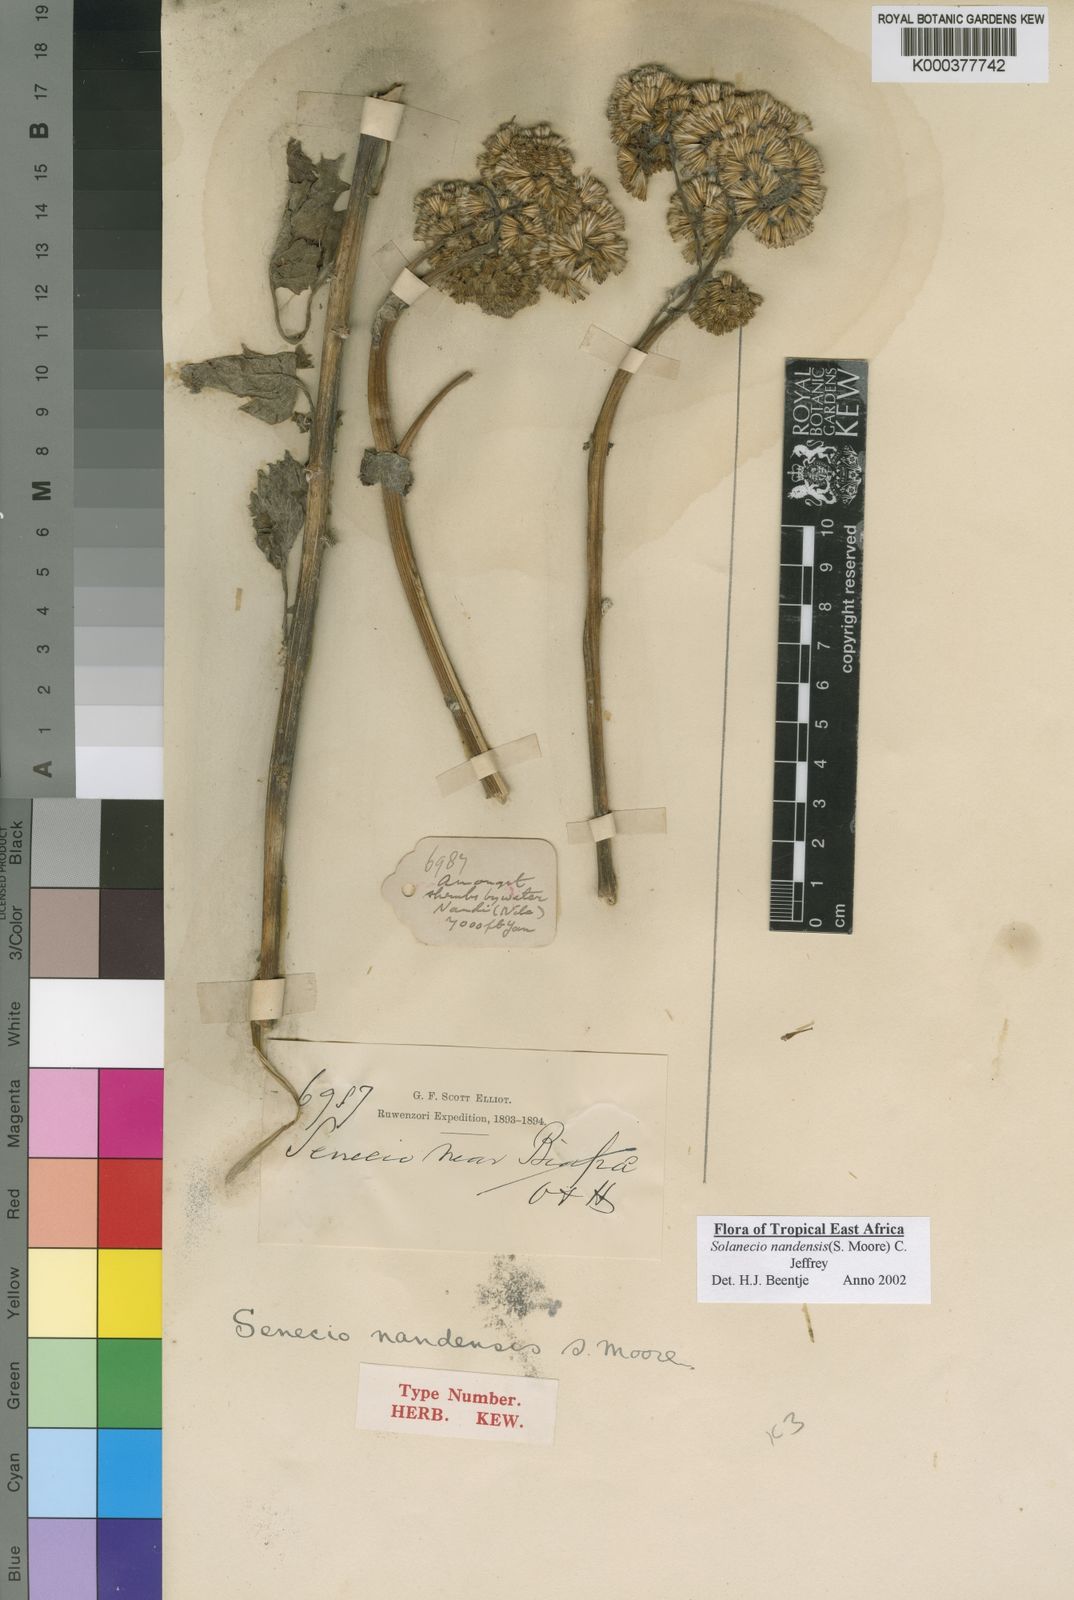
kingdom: Plantae
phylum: Tracheophyta
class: Magnoliopsida
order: Asterales
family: Asteraceae
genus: Solanecio
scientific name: Solanecio nandensis
